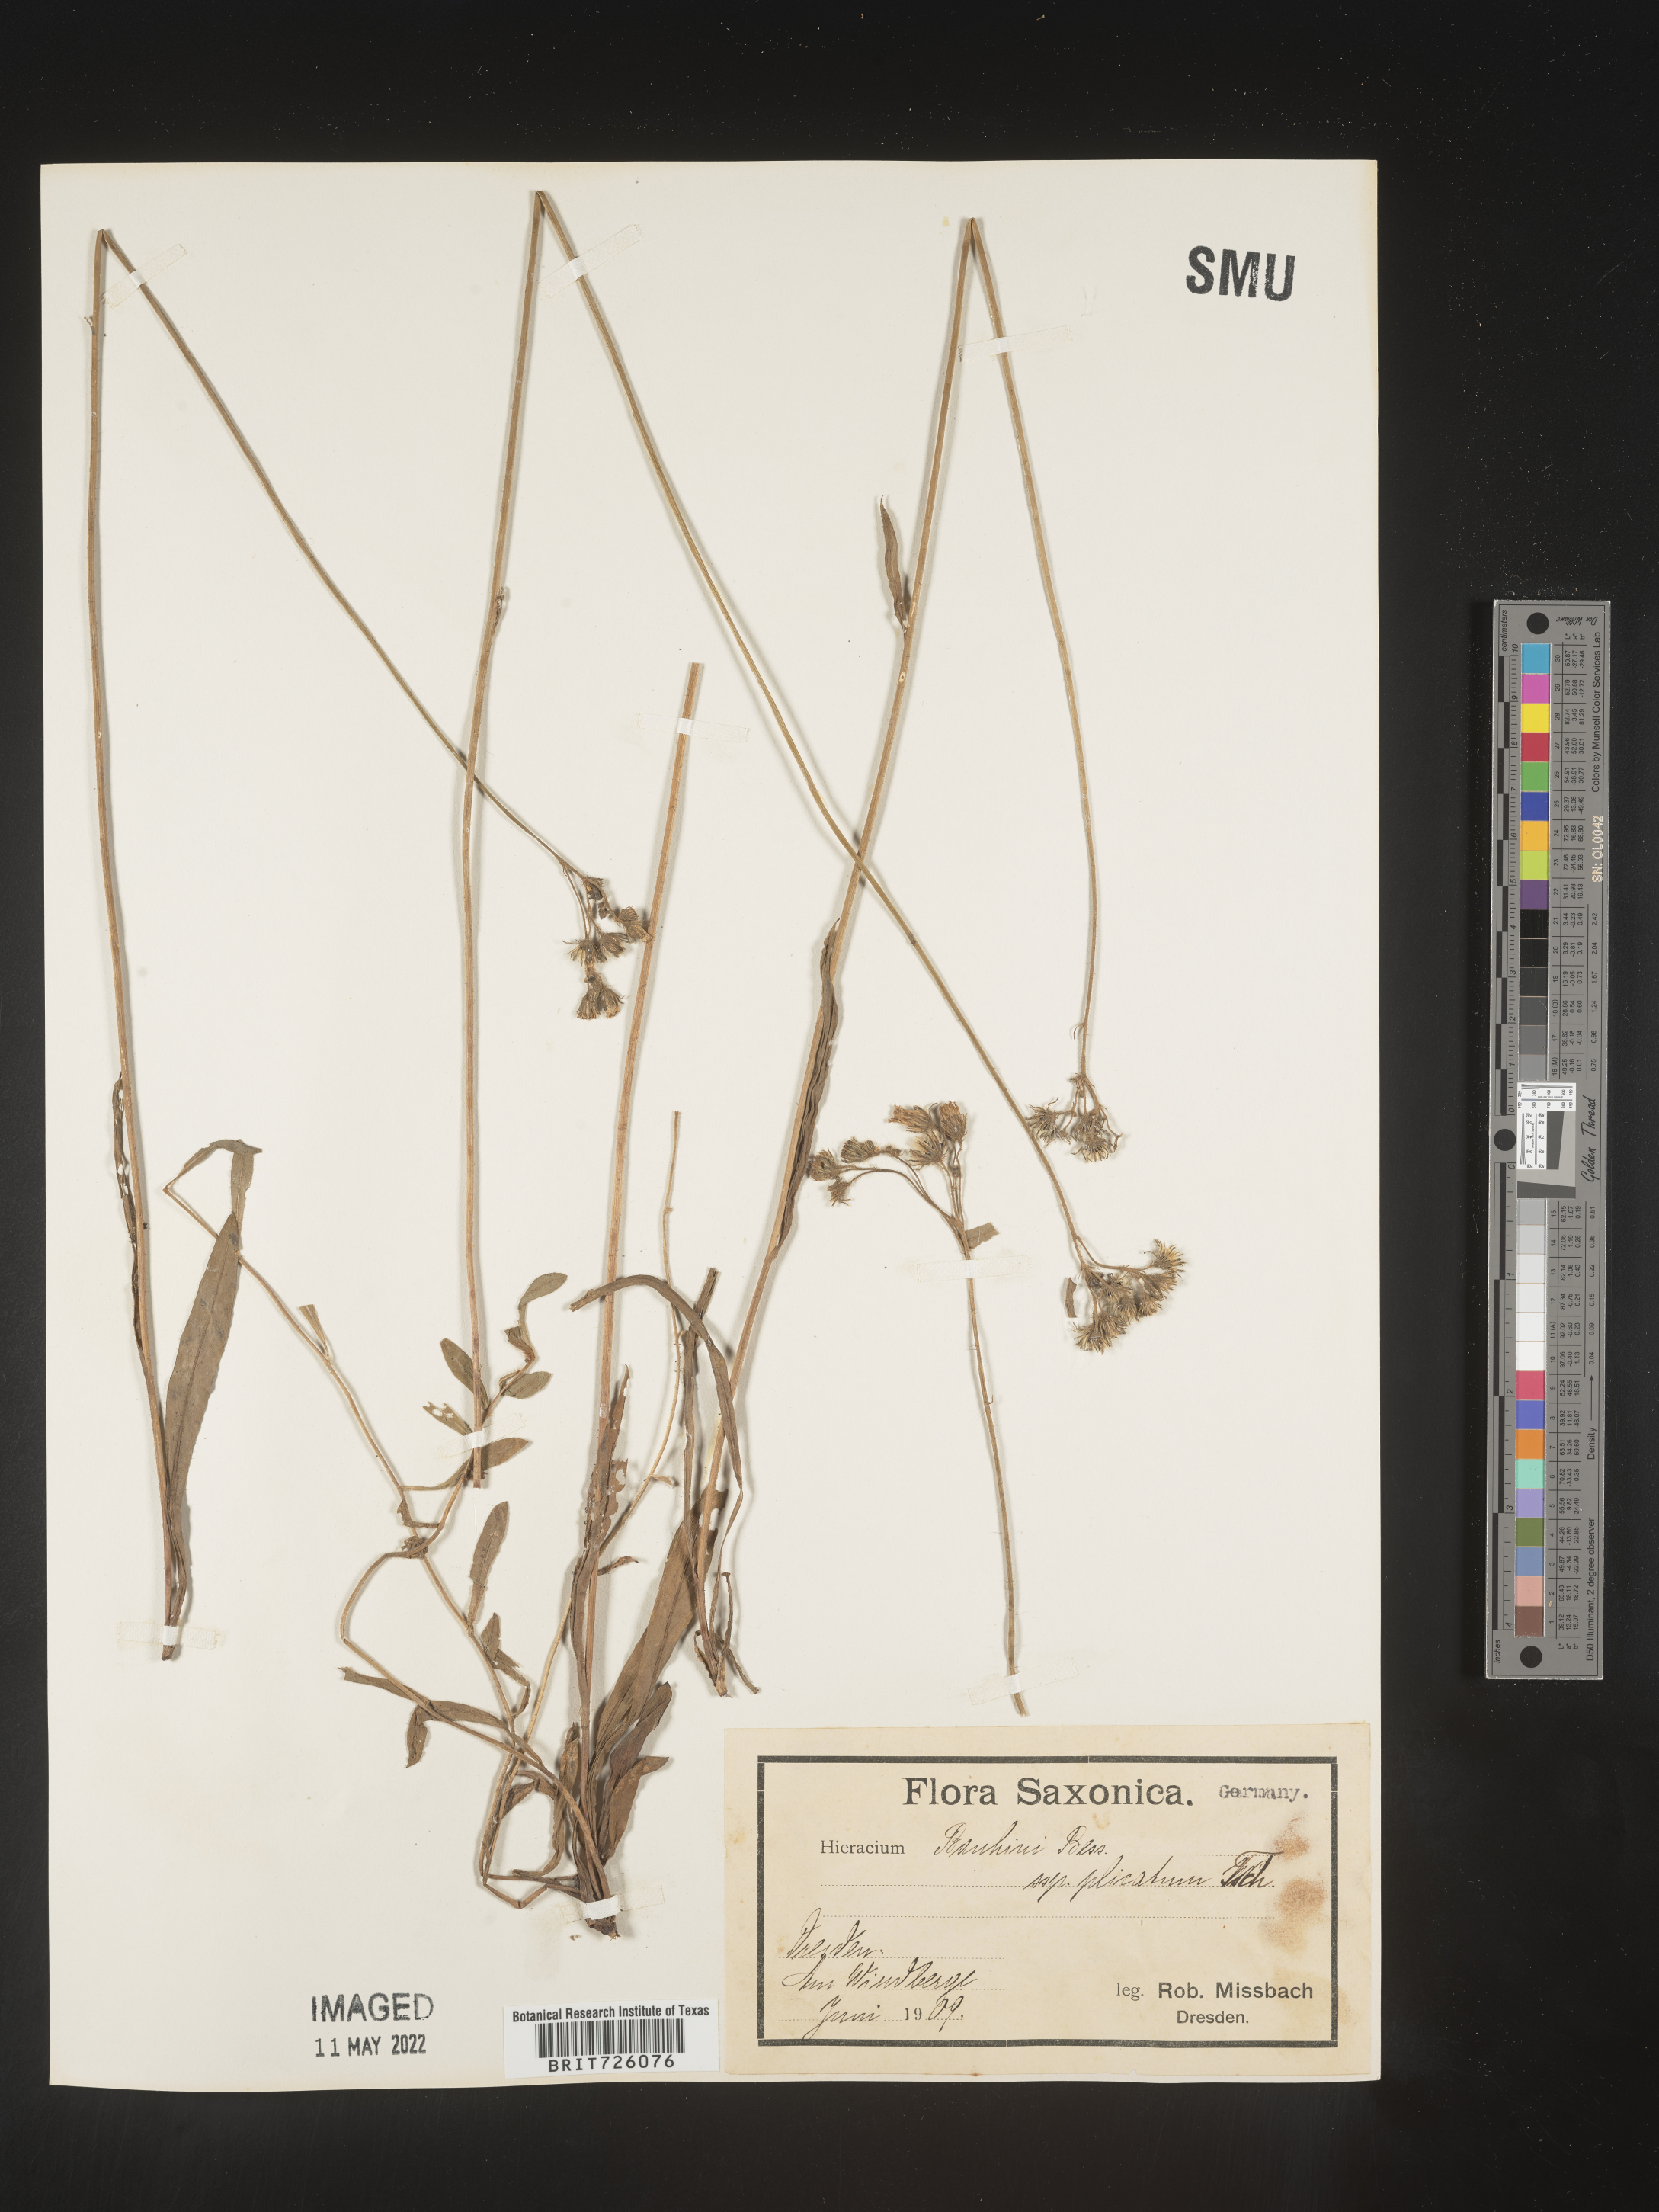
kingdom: Plantae
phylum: Tracheophyta
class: Magnoliopsida
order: Asterales
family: Asteraceae
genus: Hieracium
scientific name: Hieracium
